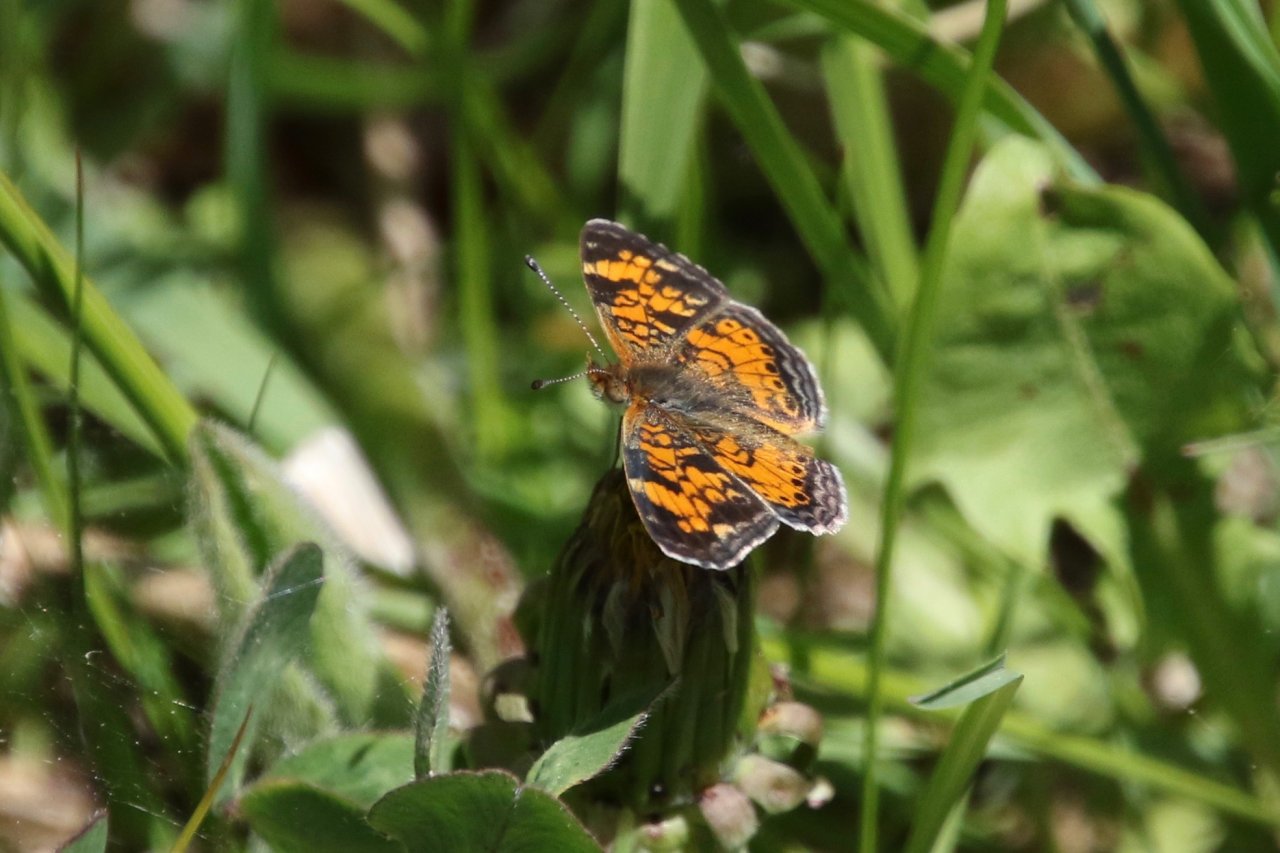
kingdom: Animalia
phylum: Arthropoda
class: Insecta
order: Lepidoptera
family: Nymphalidae
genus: Phyciodes
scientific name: Phyciodes tharos
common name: Pearl Crescent
